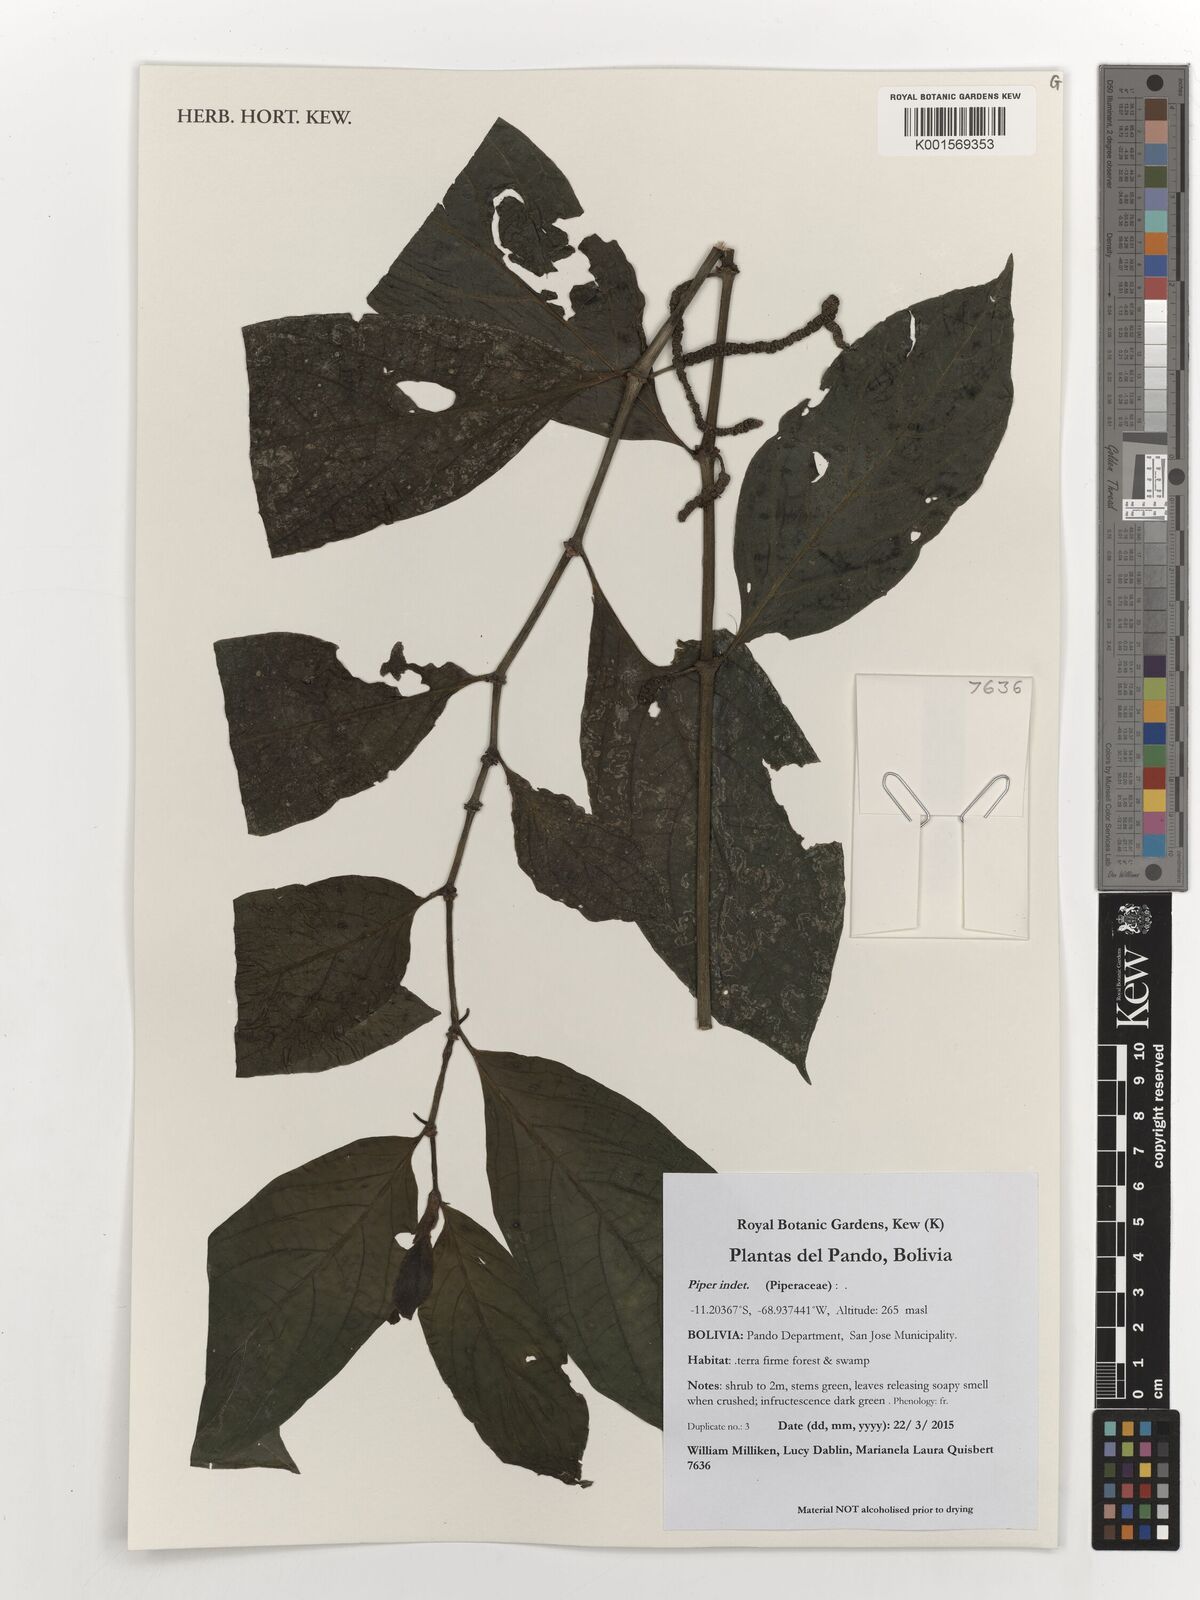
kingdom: Plantae
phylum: Tracheophyta
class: Magnoliopsida
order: Piperales
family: Piperaceae
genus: Piper
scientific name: Piper
